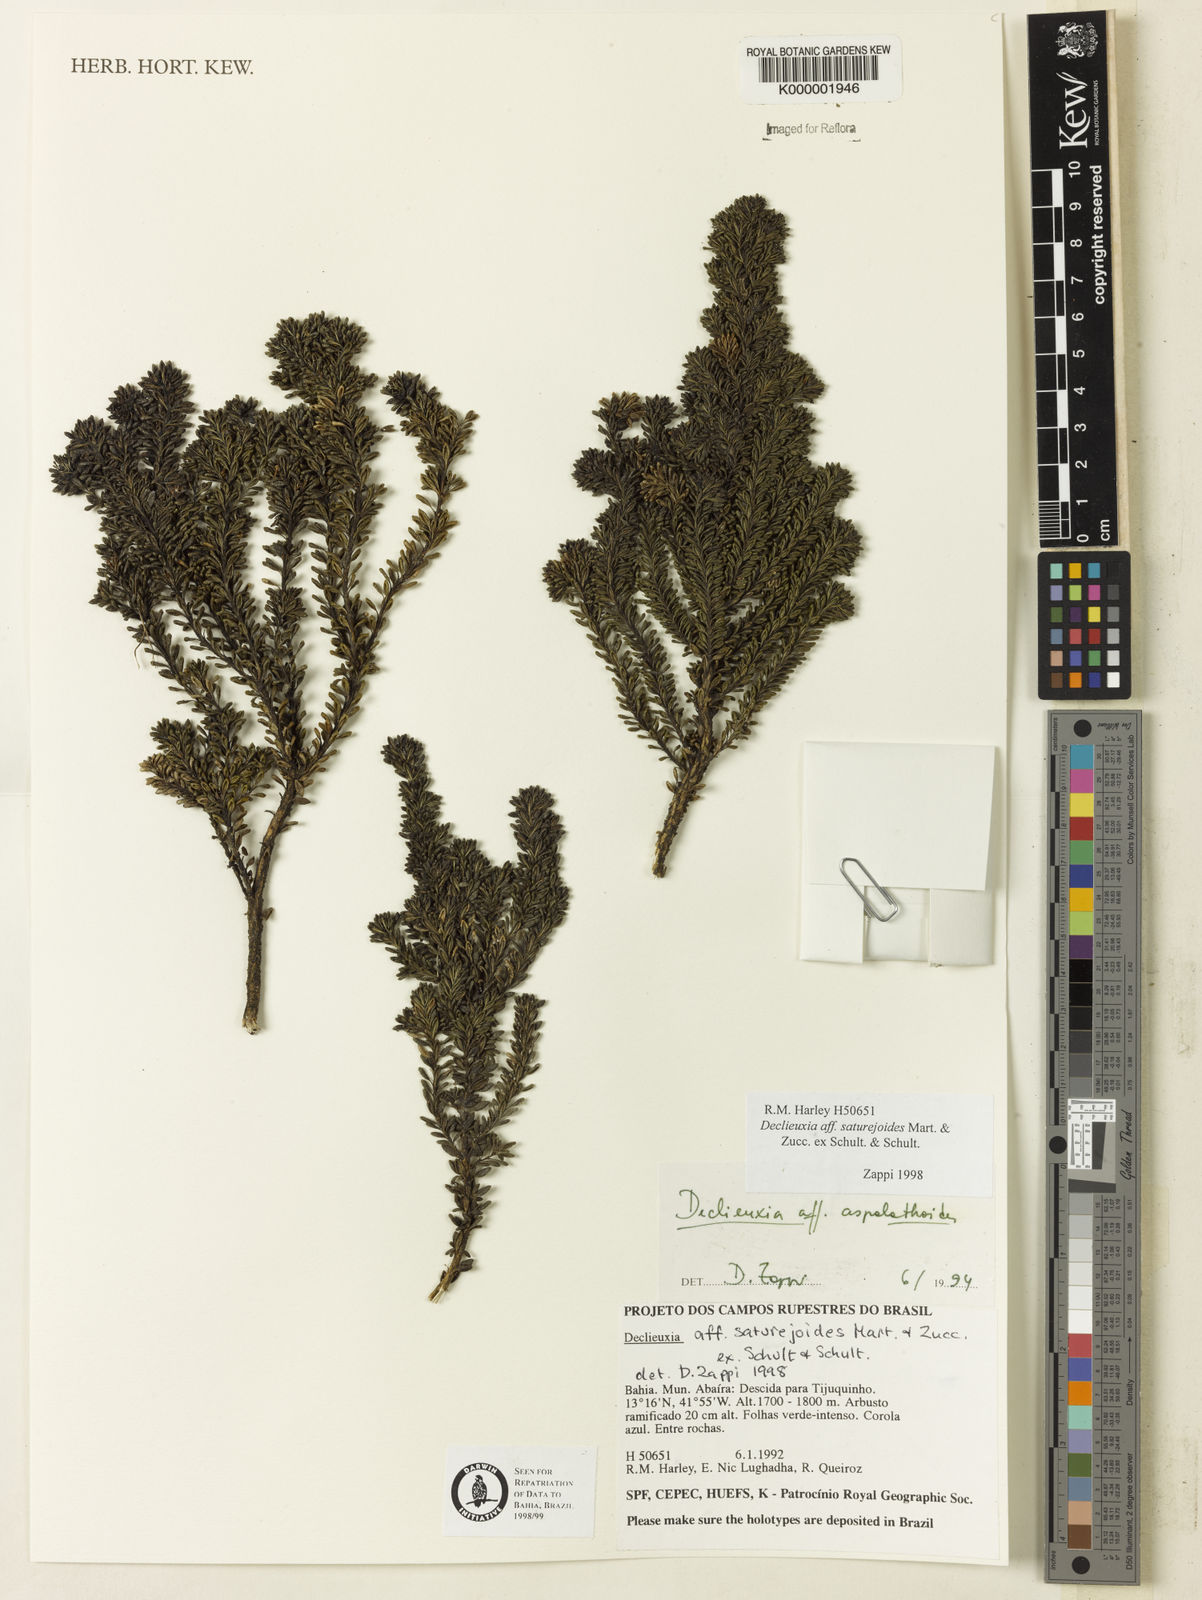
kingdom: Plantae
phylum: Tracheophyta
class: Magnoliopsida
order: Gentianales
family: Rubiaceae
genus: Declieuxia
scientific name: Declieuxia
